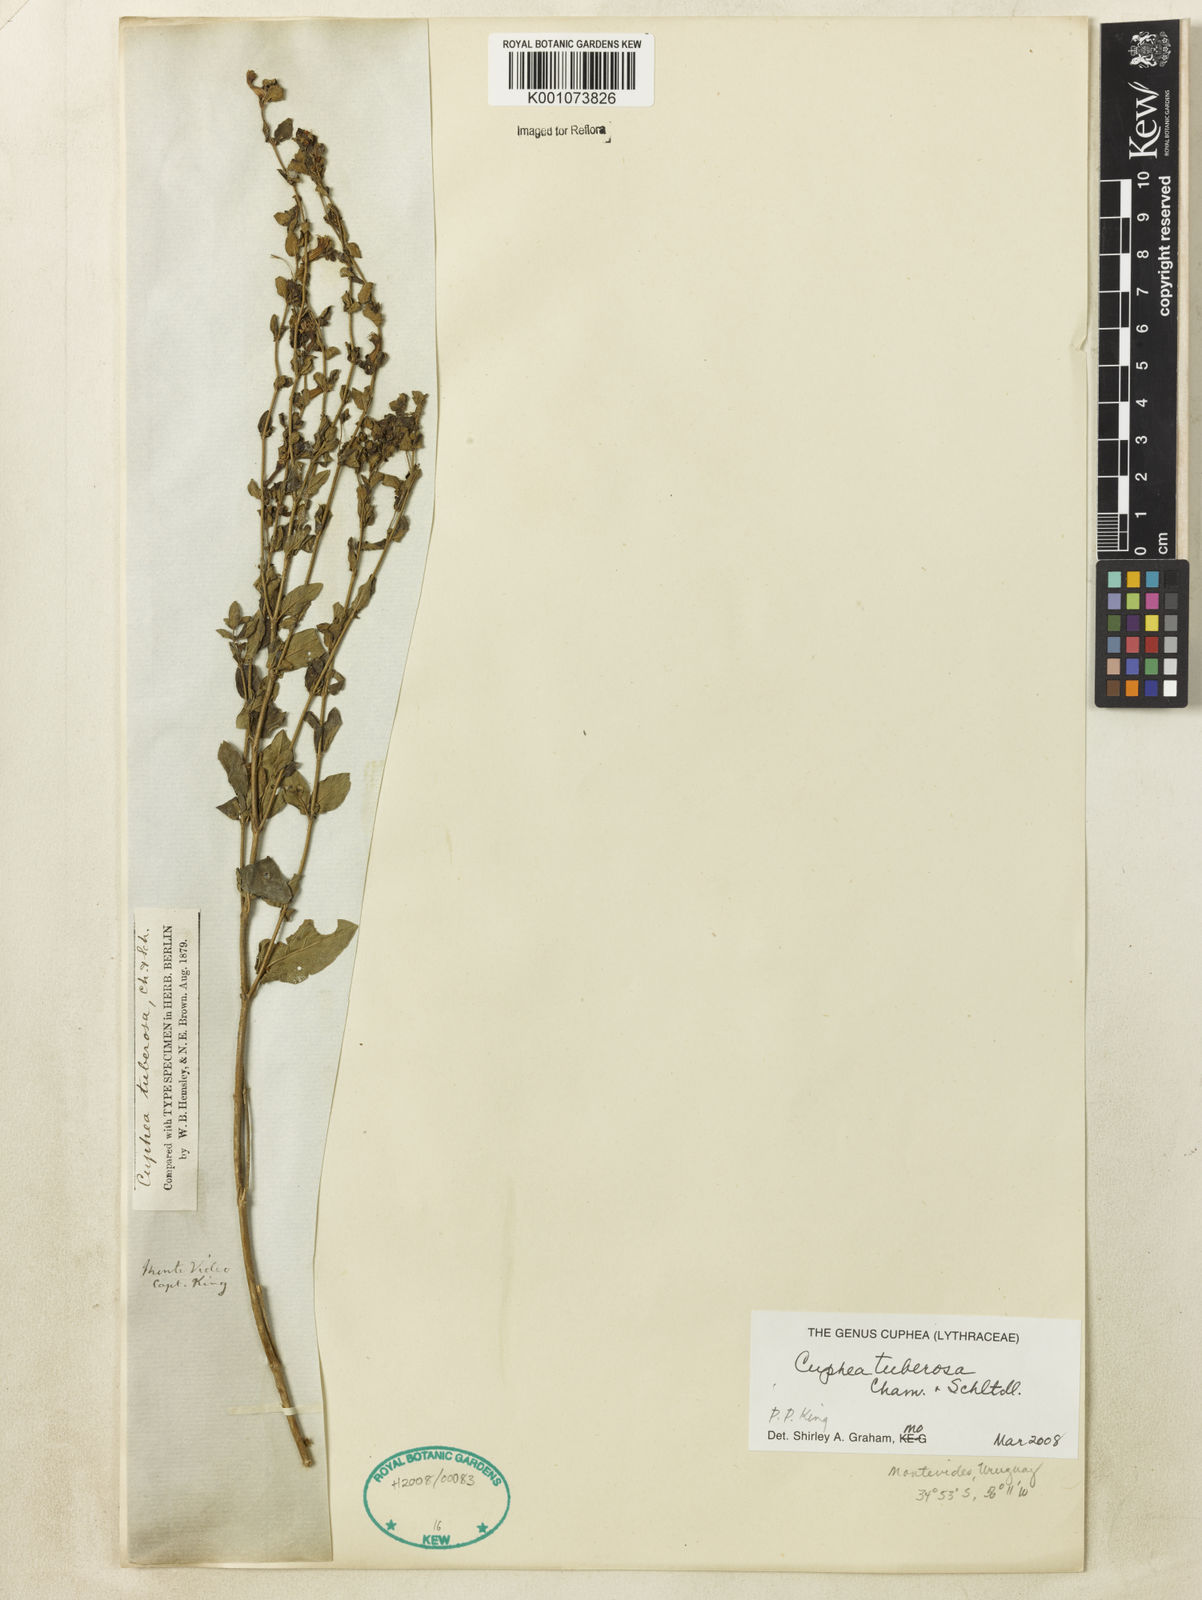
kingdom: Plantae
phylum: Tracheophyta
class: Magnoliopsida
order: Myrtales
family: Lythraceae
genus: Cuphea
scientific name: Cuphea tuberosa
